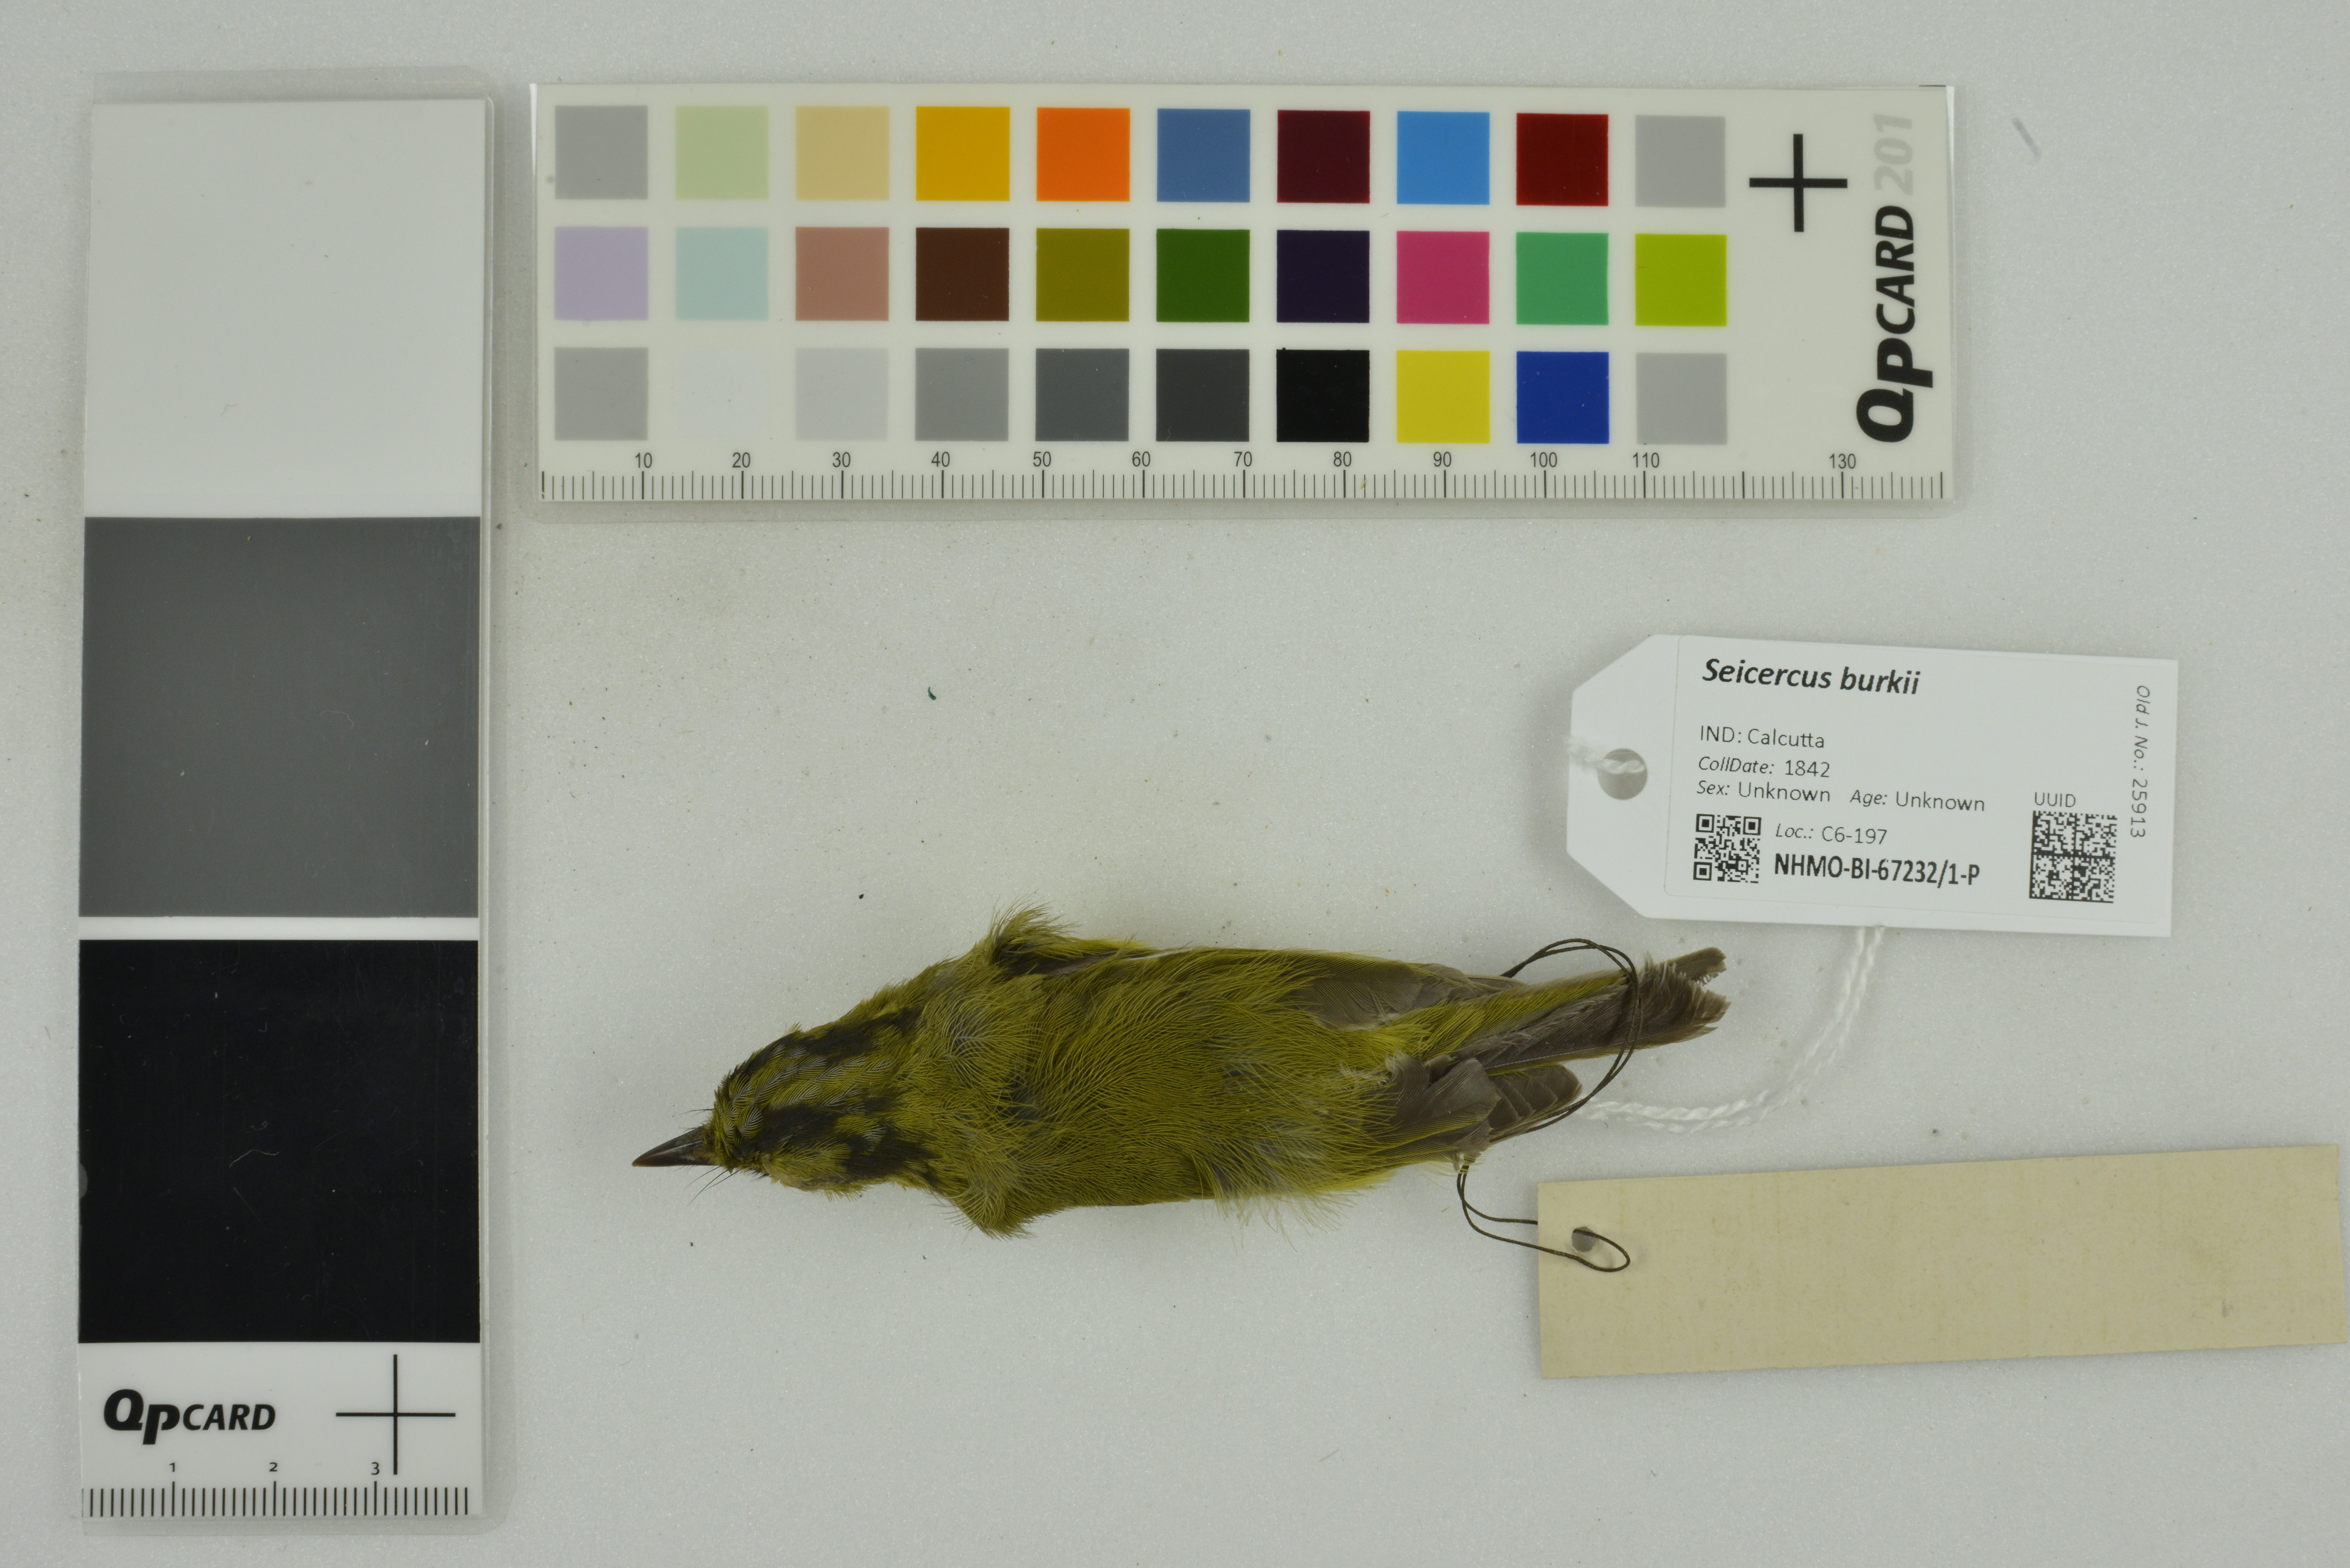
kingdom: Animalia
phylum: Chordata
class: Aves
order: Passeriformes
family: Phylloscopidae
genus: Seicercus
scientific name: Seicercus burkii
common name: Green-crowned warbler
